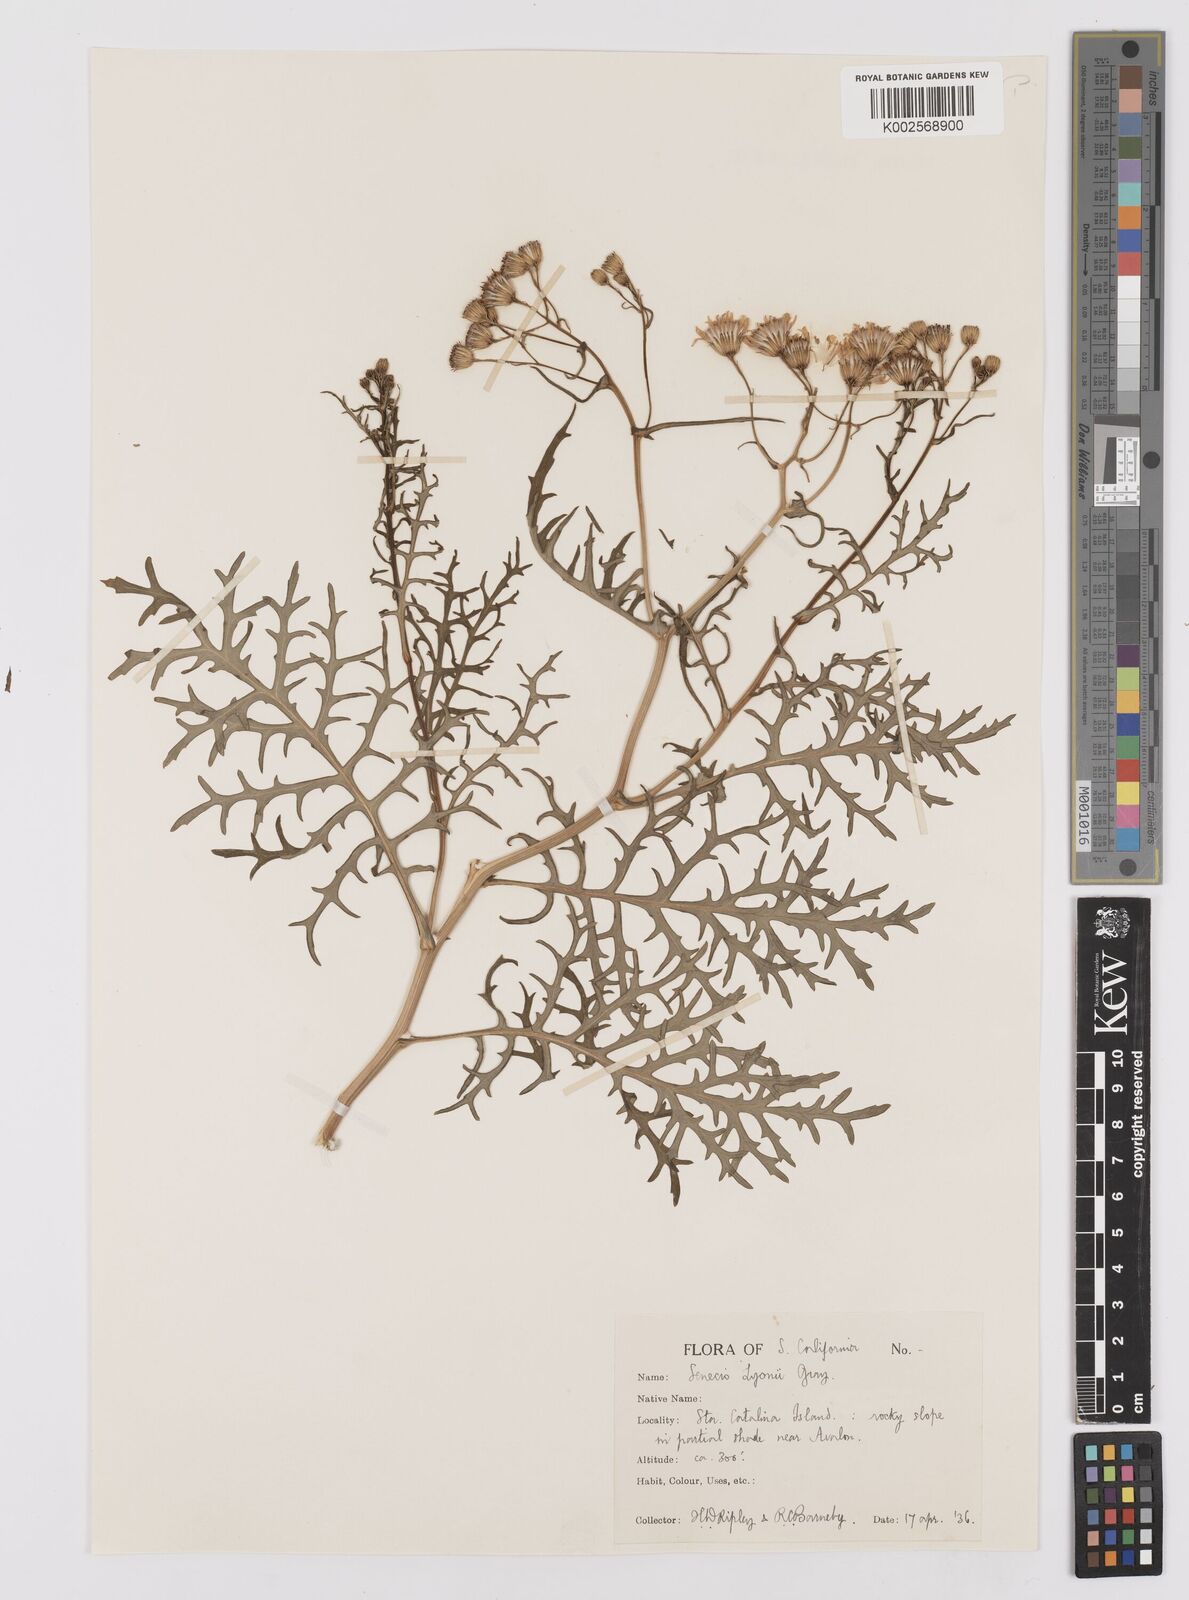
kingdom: Plantae
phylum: Tracheophyta
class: Magnoliopsida
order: Asterales
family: Asteraceae
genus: Senecio
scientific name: Senecio lyonii
